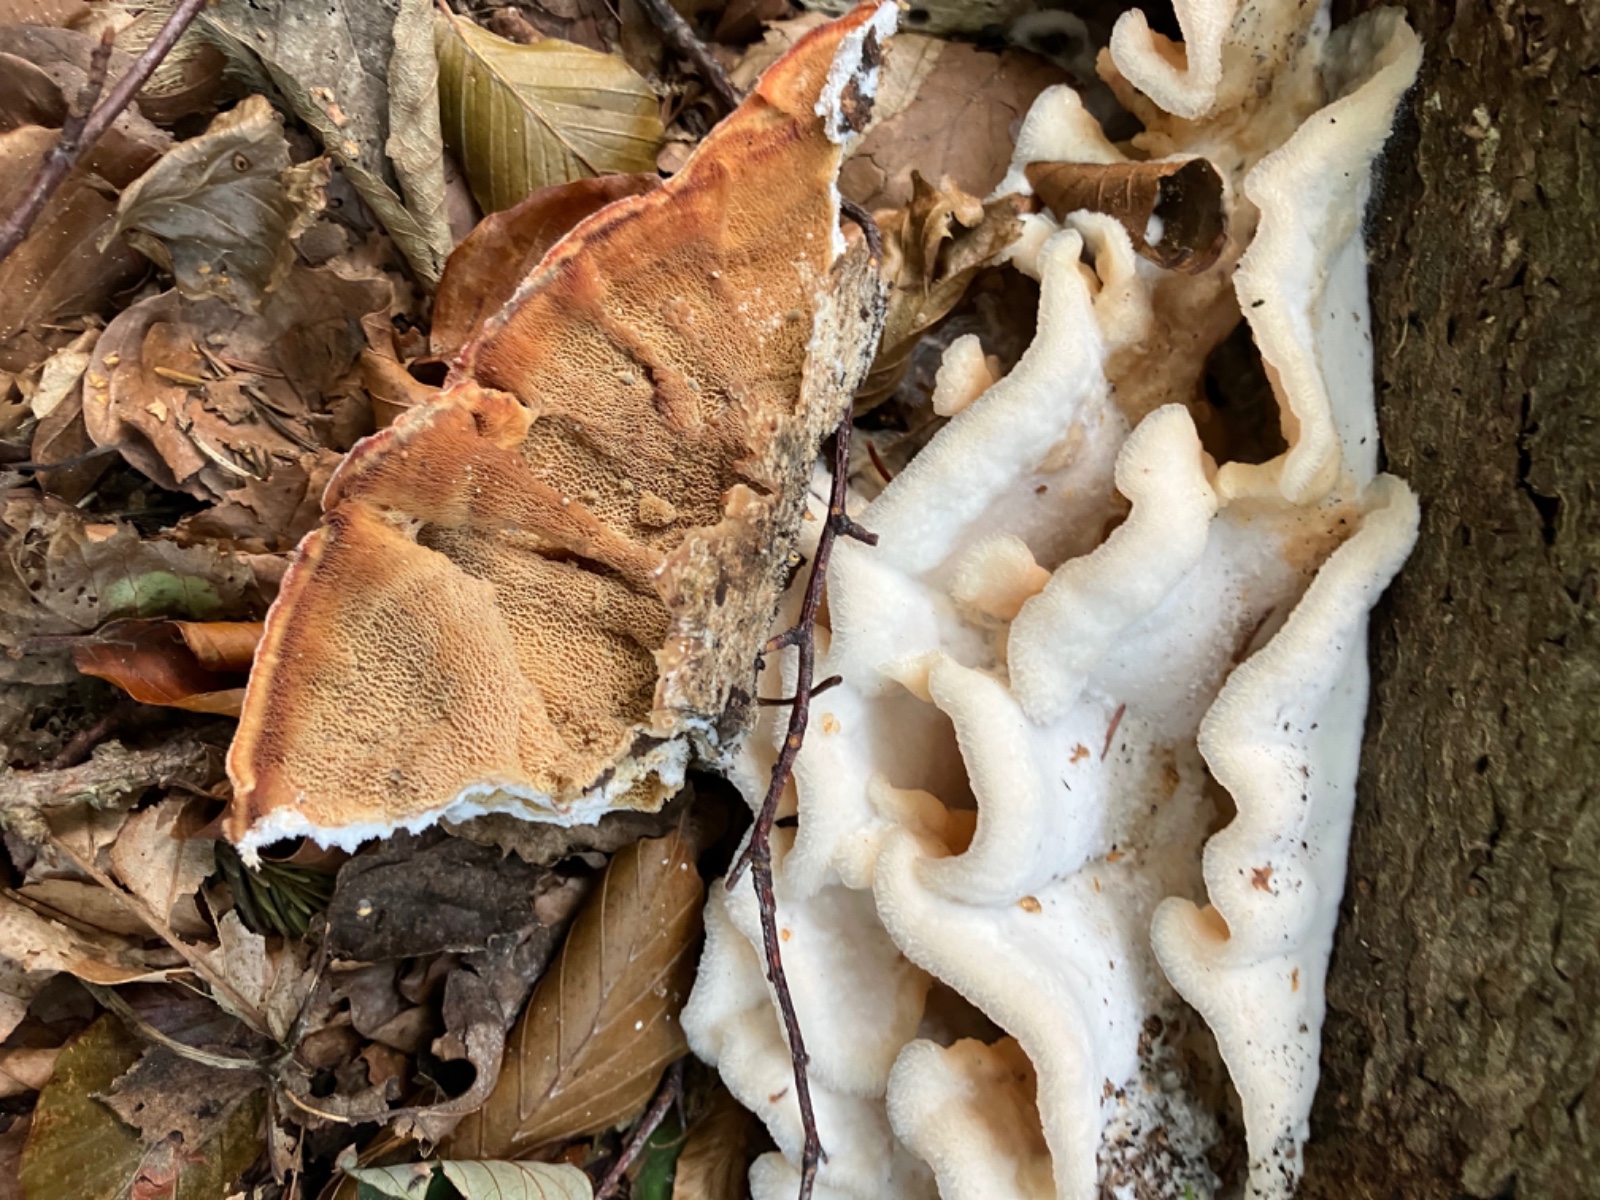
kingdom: Fungi
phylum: Basidiomycota
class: Agaricomycetes
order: Polyporales
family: Meruliaceae
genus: Phlebia
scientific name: Phlebia tremellosa
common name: bævrende åresvamp
